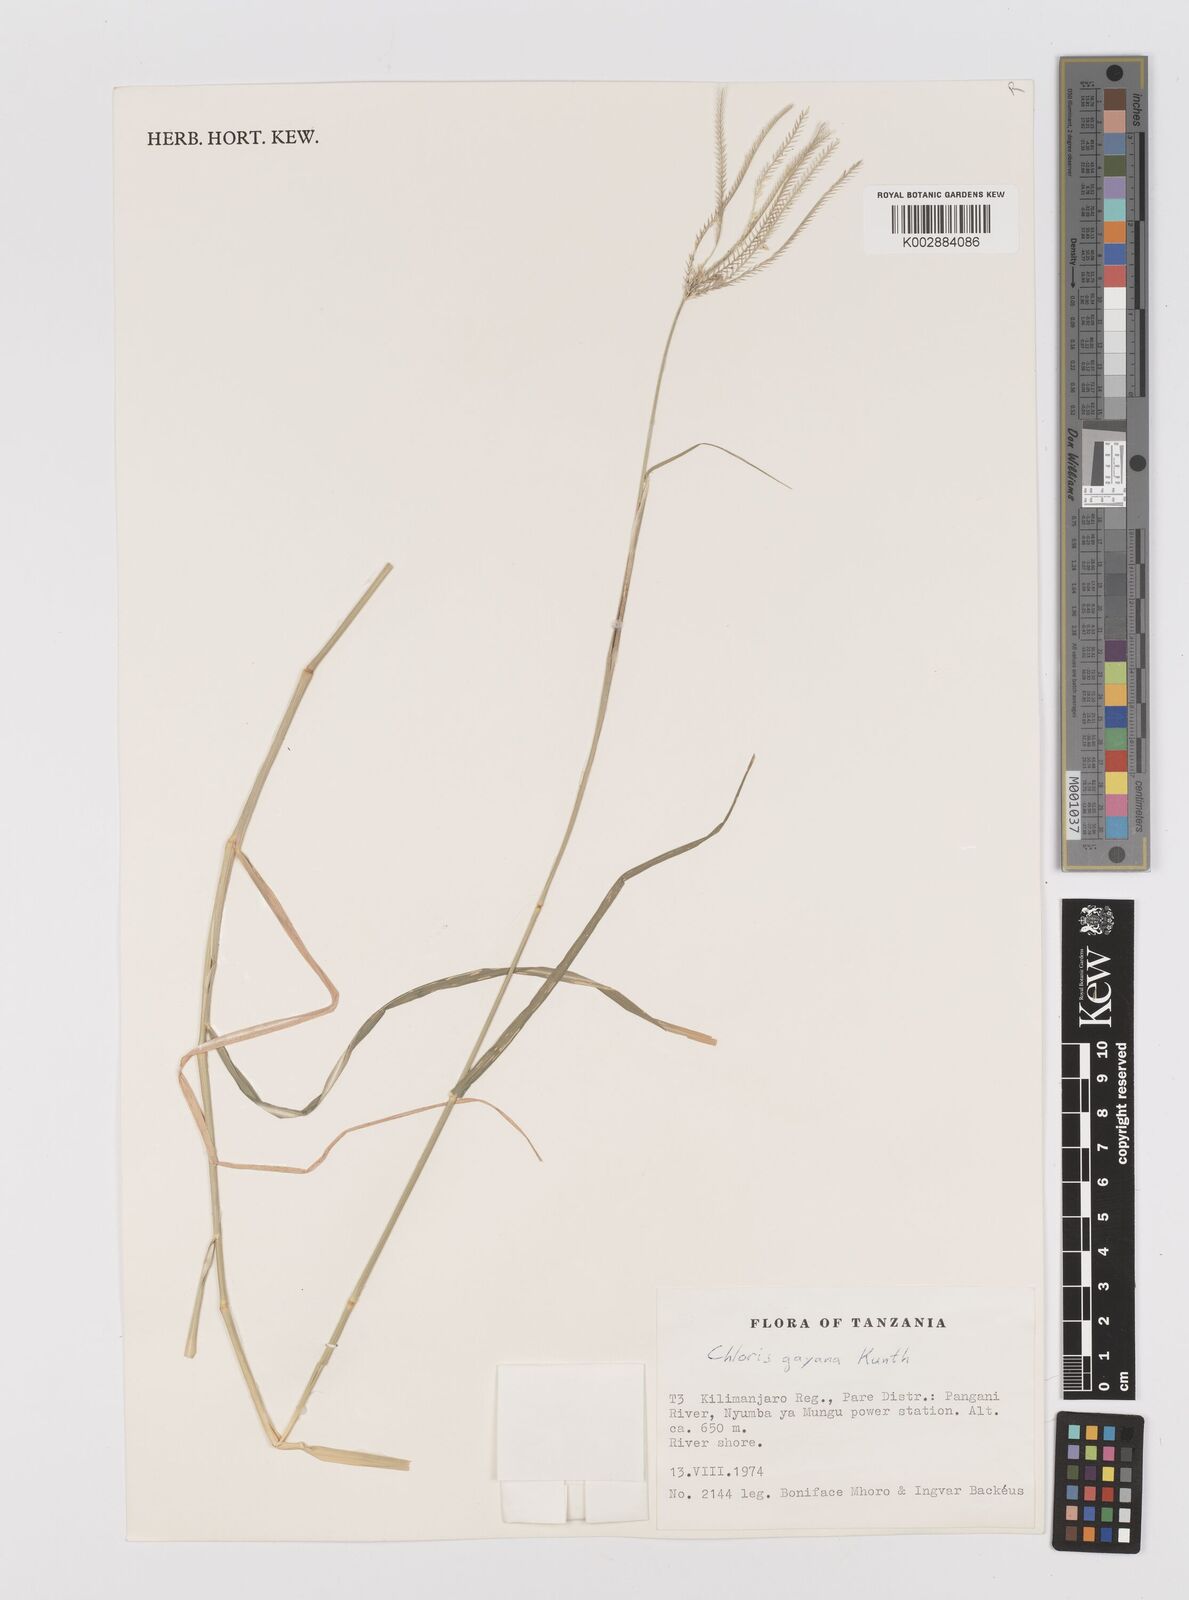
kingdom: Plantae
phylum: Tracheophyta
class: Liliopsida
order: Poales
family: Poaceae
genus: Chloris
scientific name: Chloris gayana
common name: Rhodes grass
